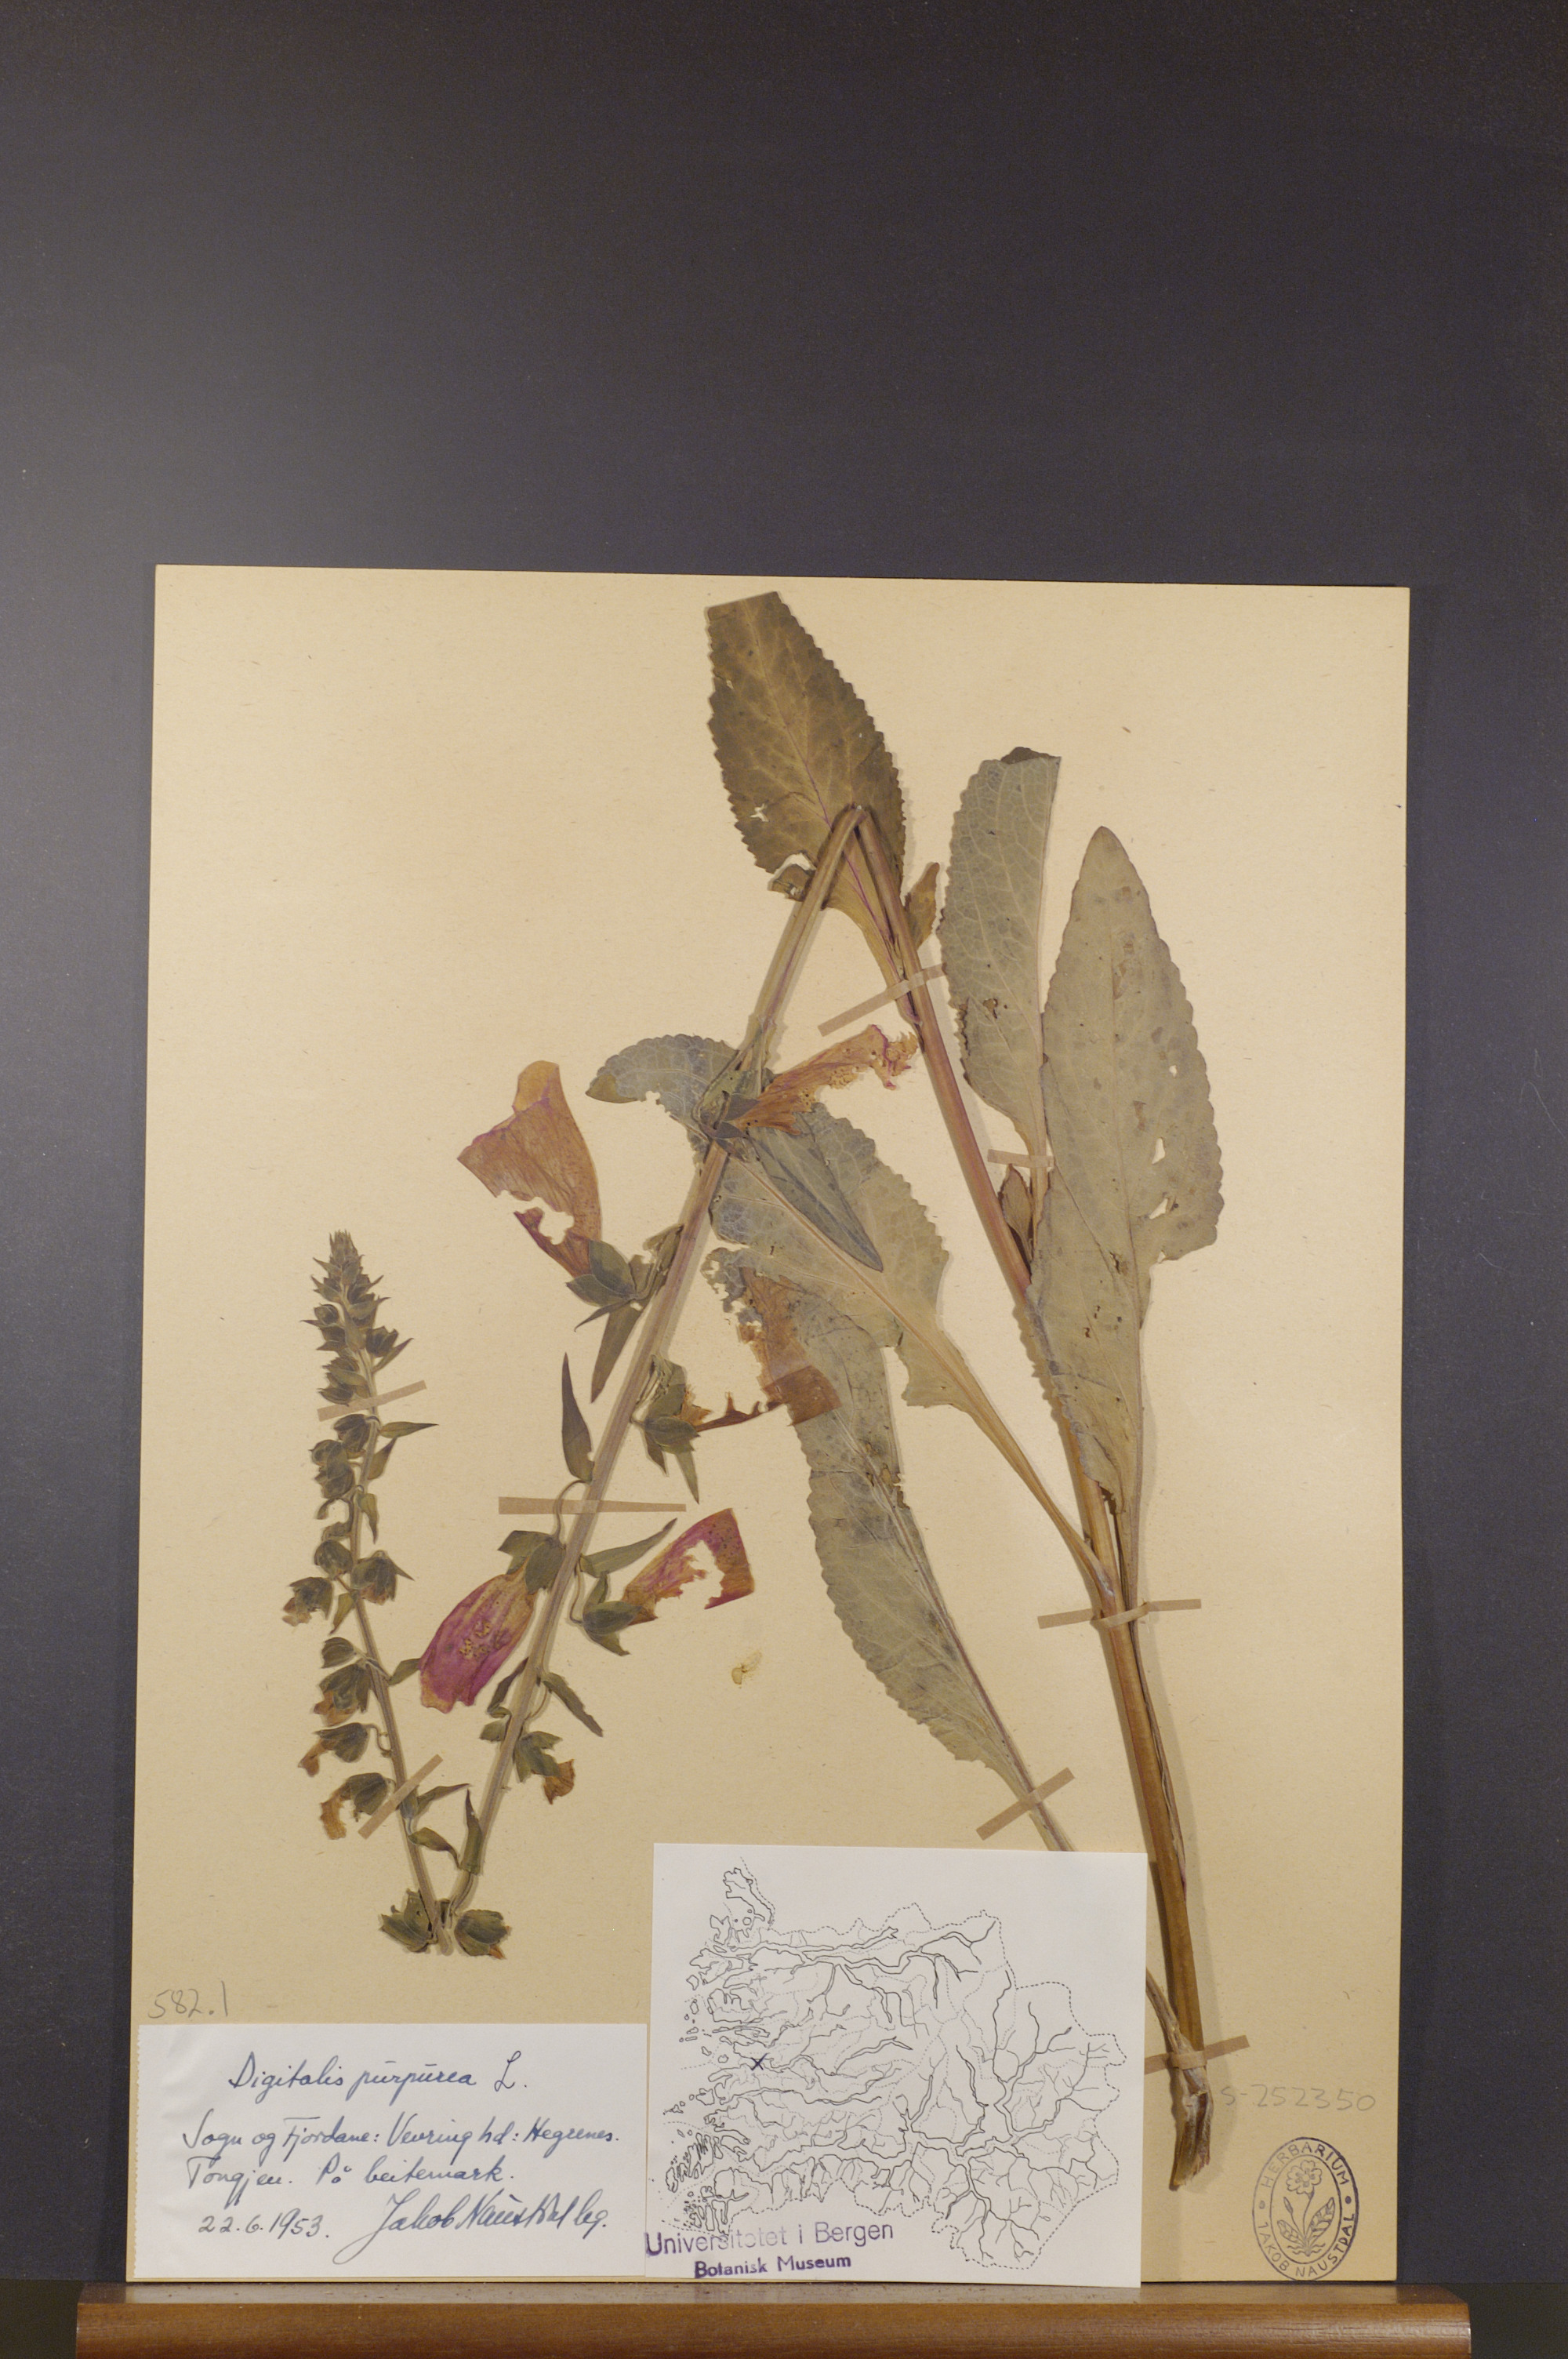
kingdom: Plantae
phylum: Tracheophyta
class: Magnoliopsida
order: Lamiales
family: Plantaginaceae
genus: Digitalis
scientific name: Digitalis purpurea
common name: Foxglove
